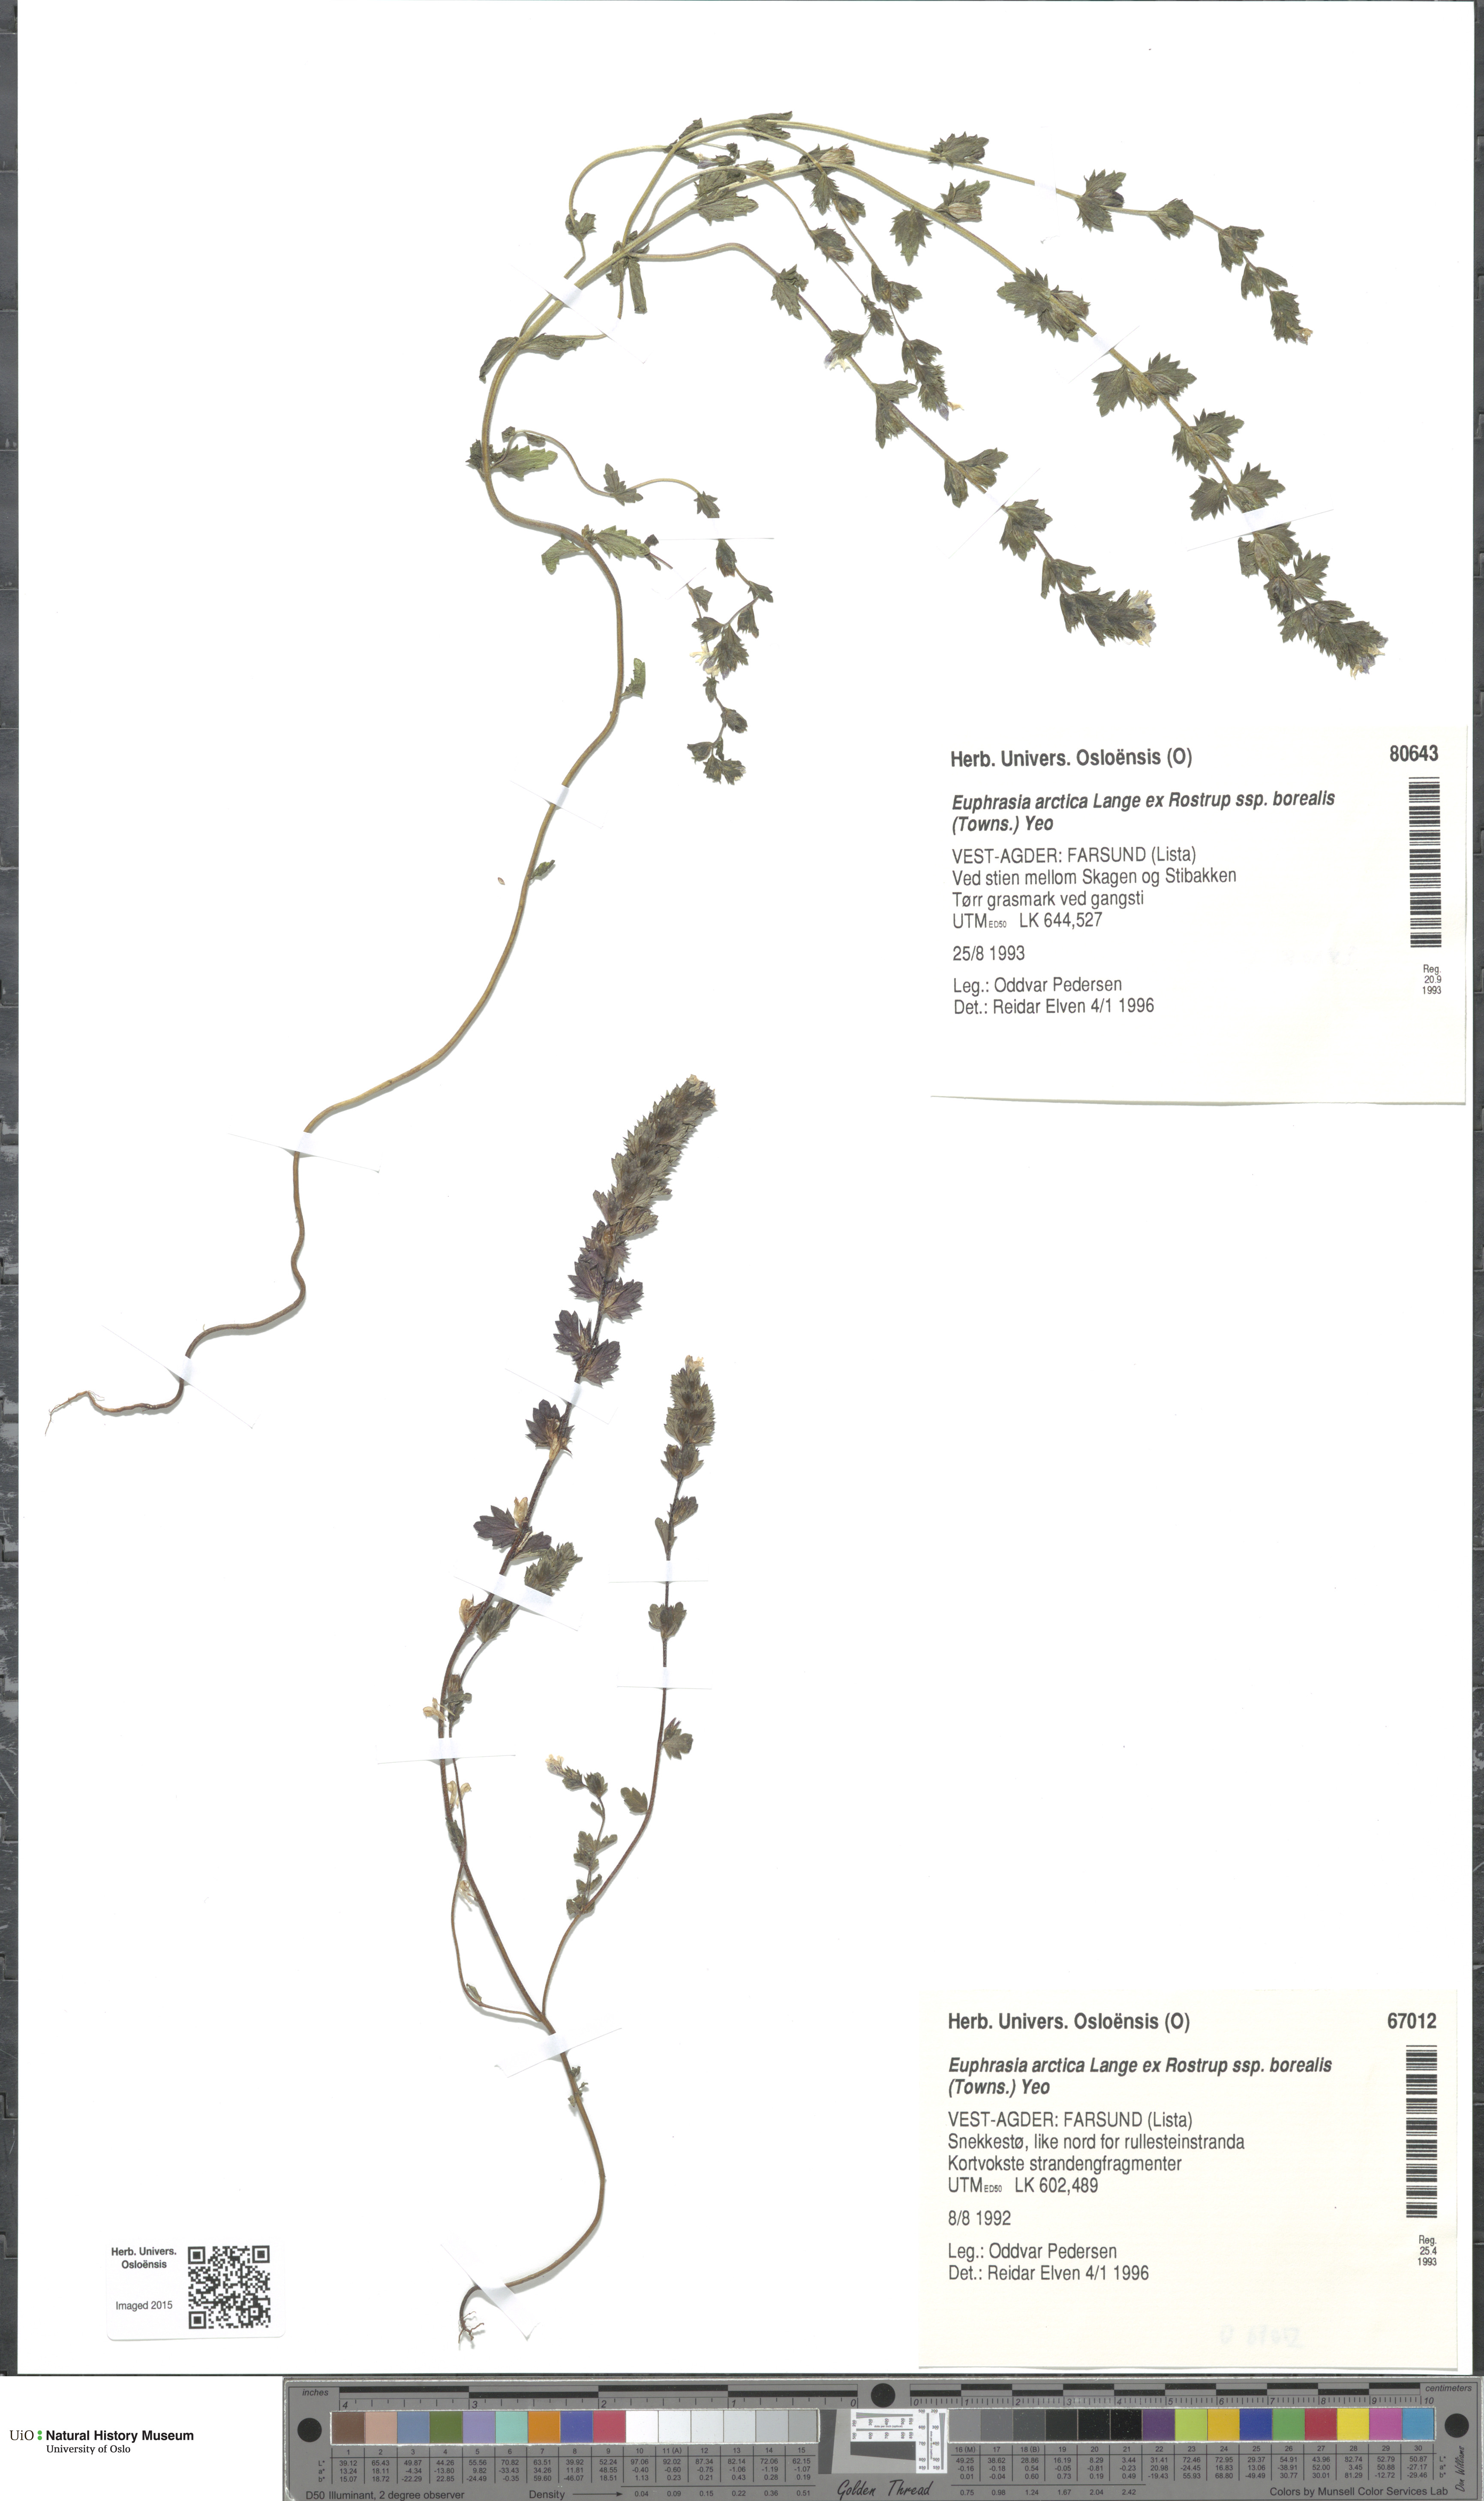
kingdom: Plantae
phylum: Tracheophyta
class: Magnoliopsida
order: Lamiales
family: Orobanchaceae
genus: Euphrasia
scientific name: Euphrasia arctica
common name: An eyebright
